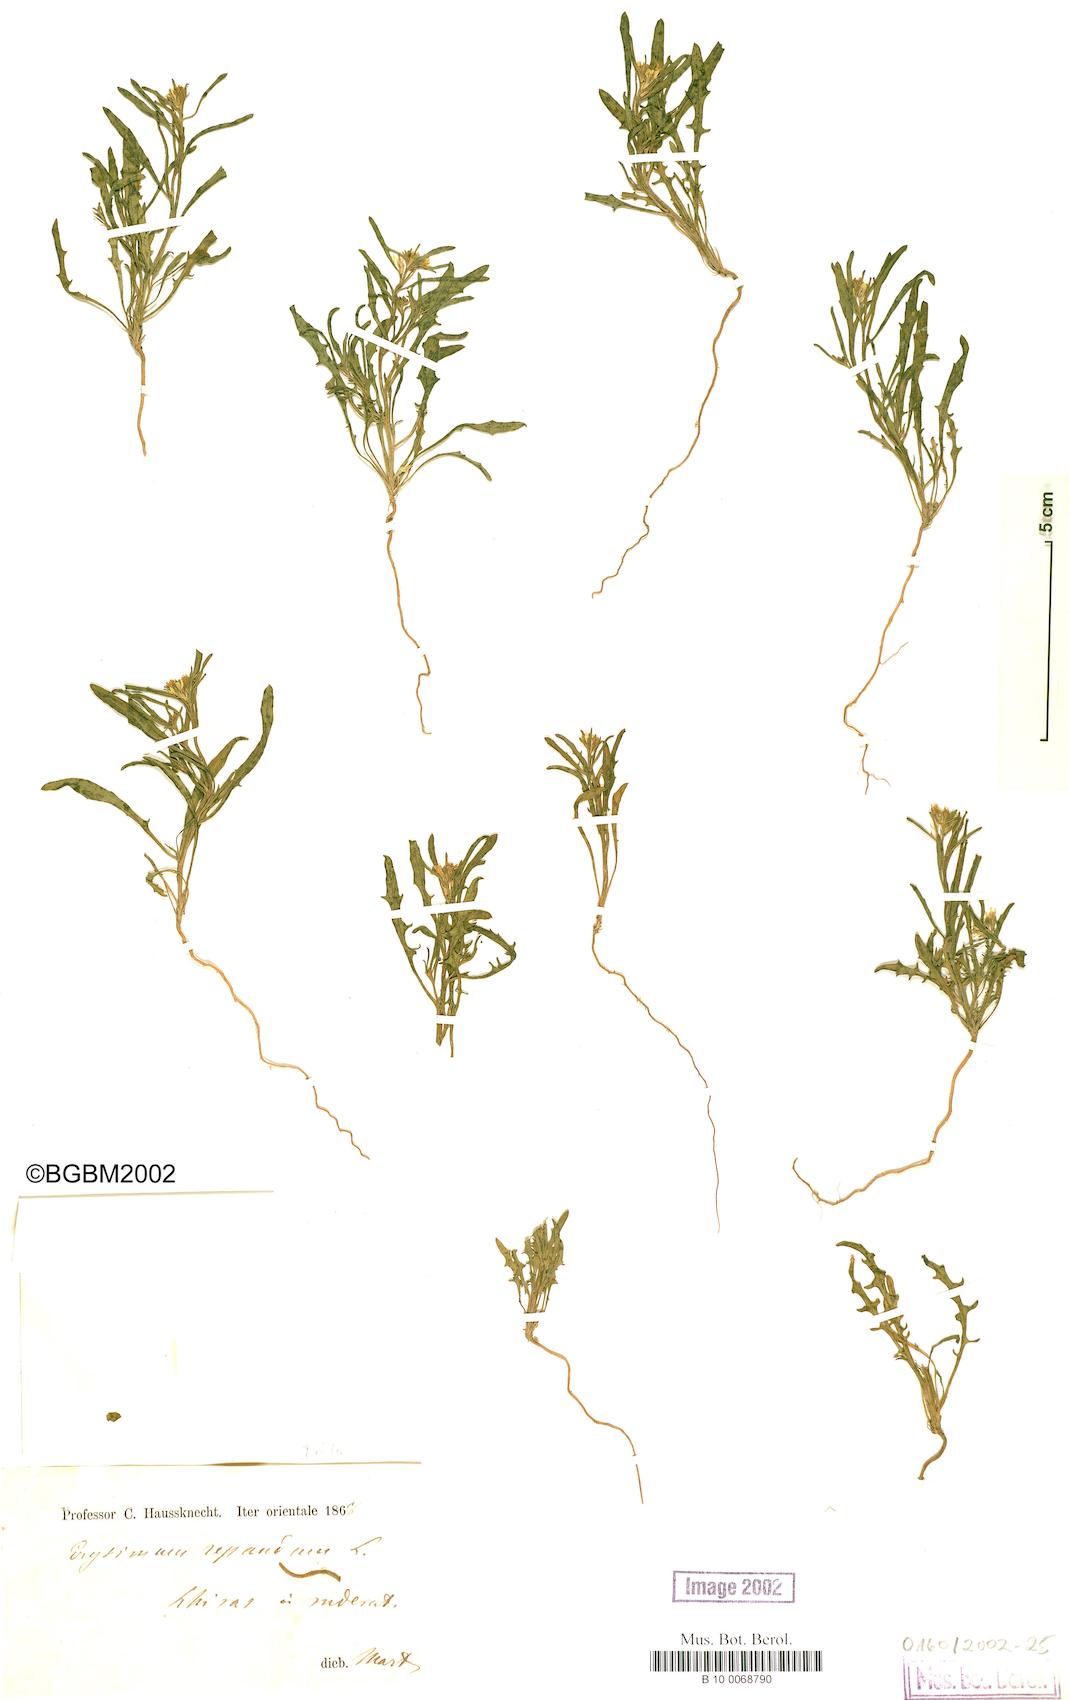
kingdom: Plantae
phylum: Tracheophyta
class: Magnoliopsida
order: Brassicales
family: Brassicaceae
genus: Erysimum
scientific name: Erysimum repandum
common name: Spreading wallflower
